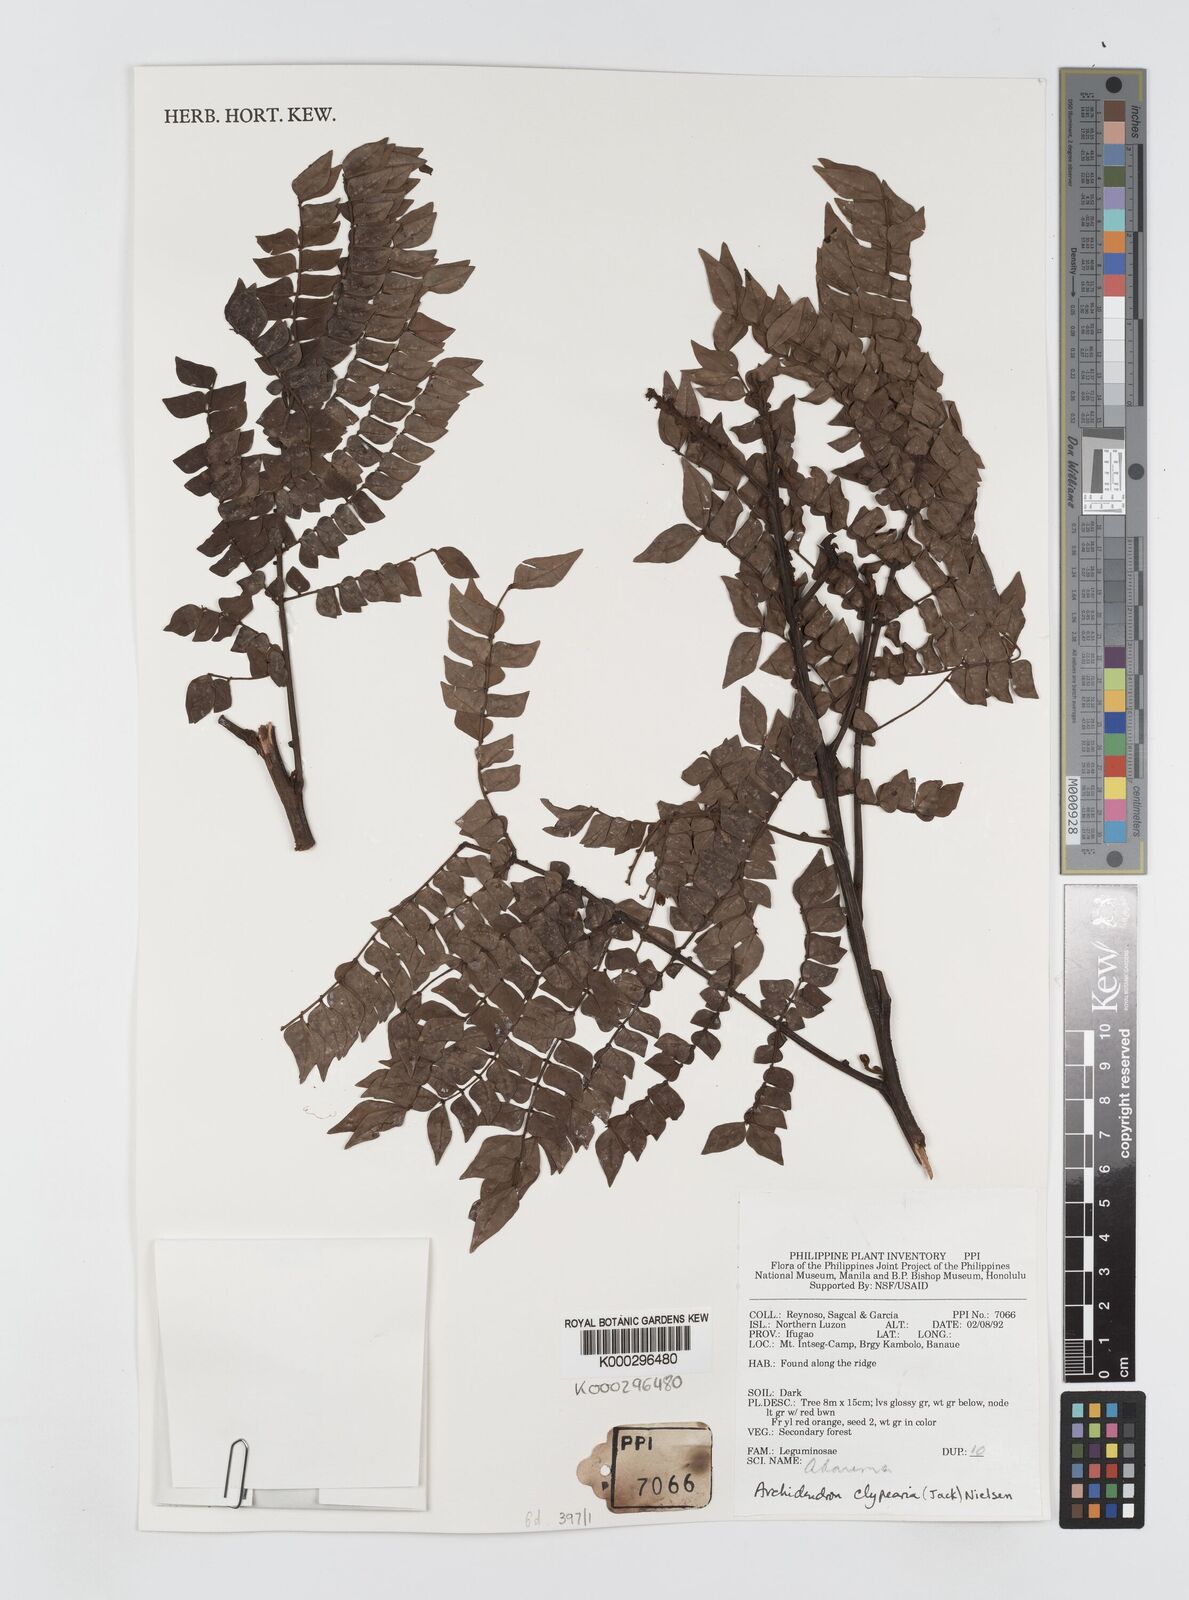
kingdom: Plantae
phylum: Tracheophyta
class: Magnoliopsida
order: Fabales
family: Fabaceae
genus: Archidendron
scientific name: Archidendron clypearia
